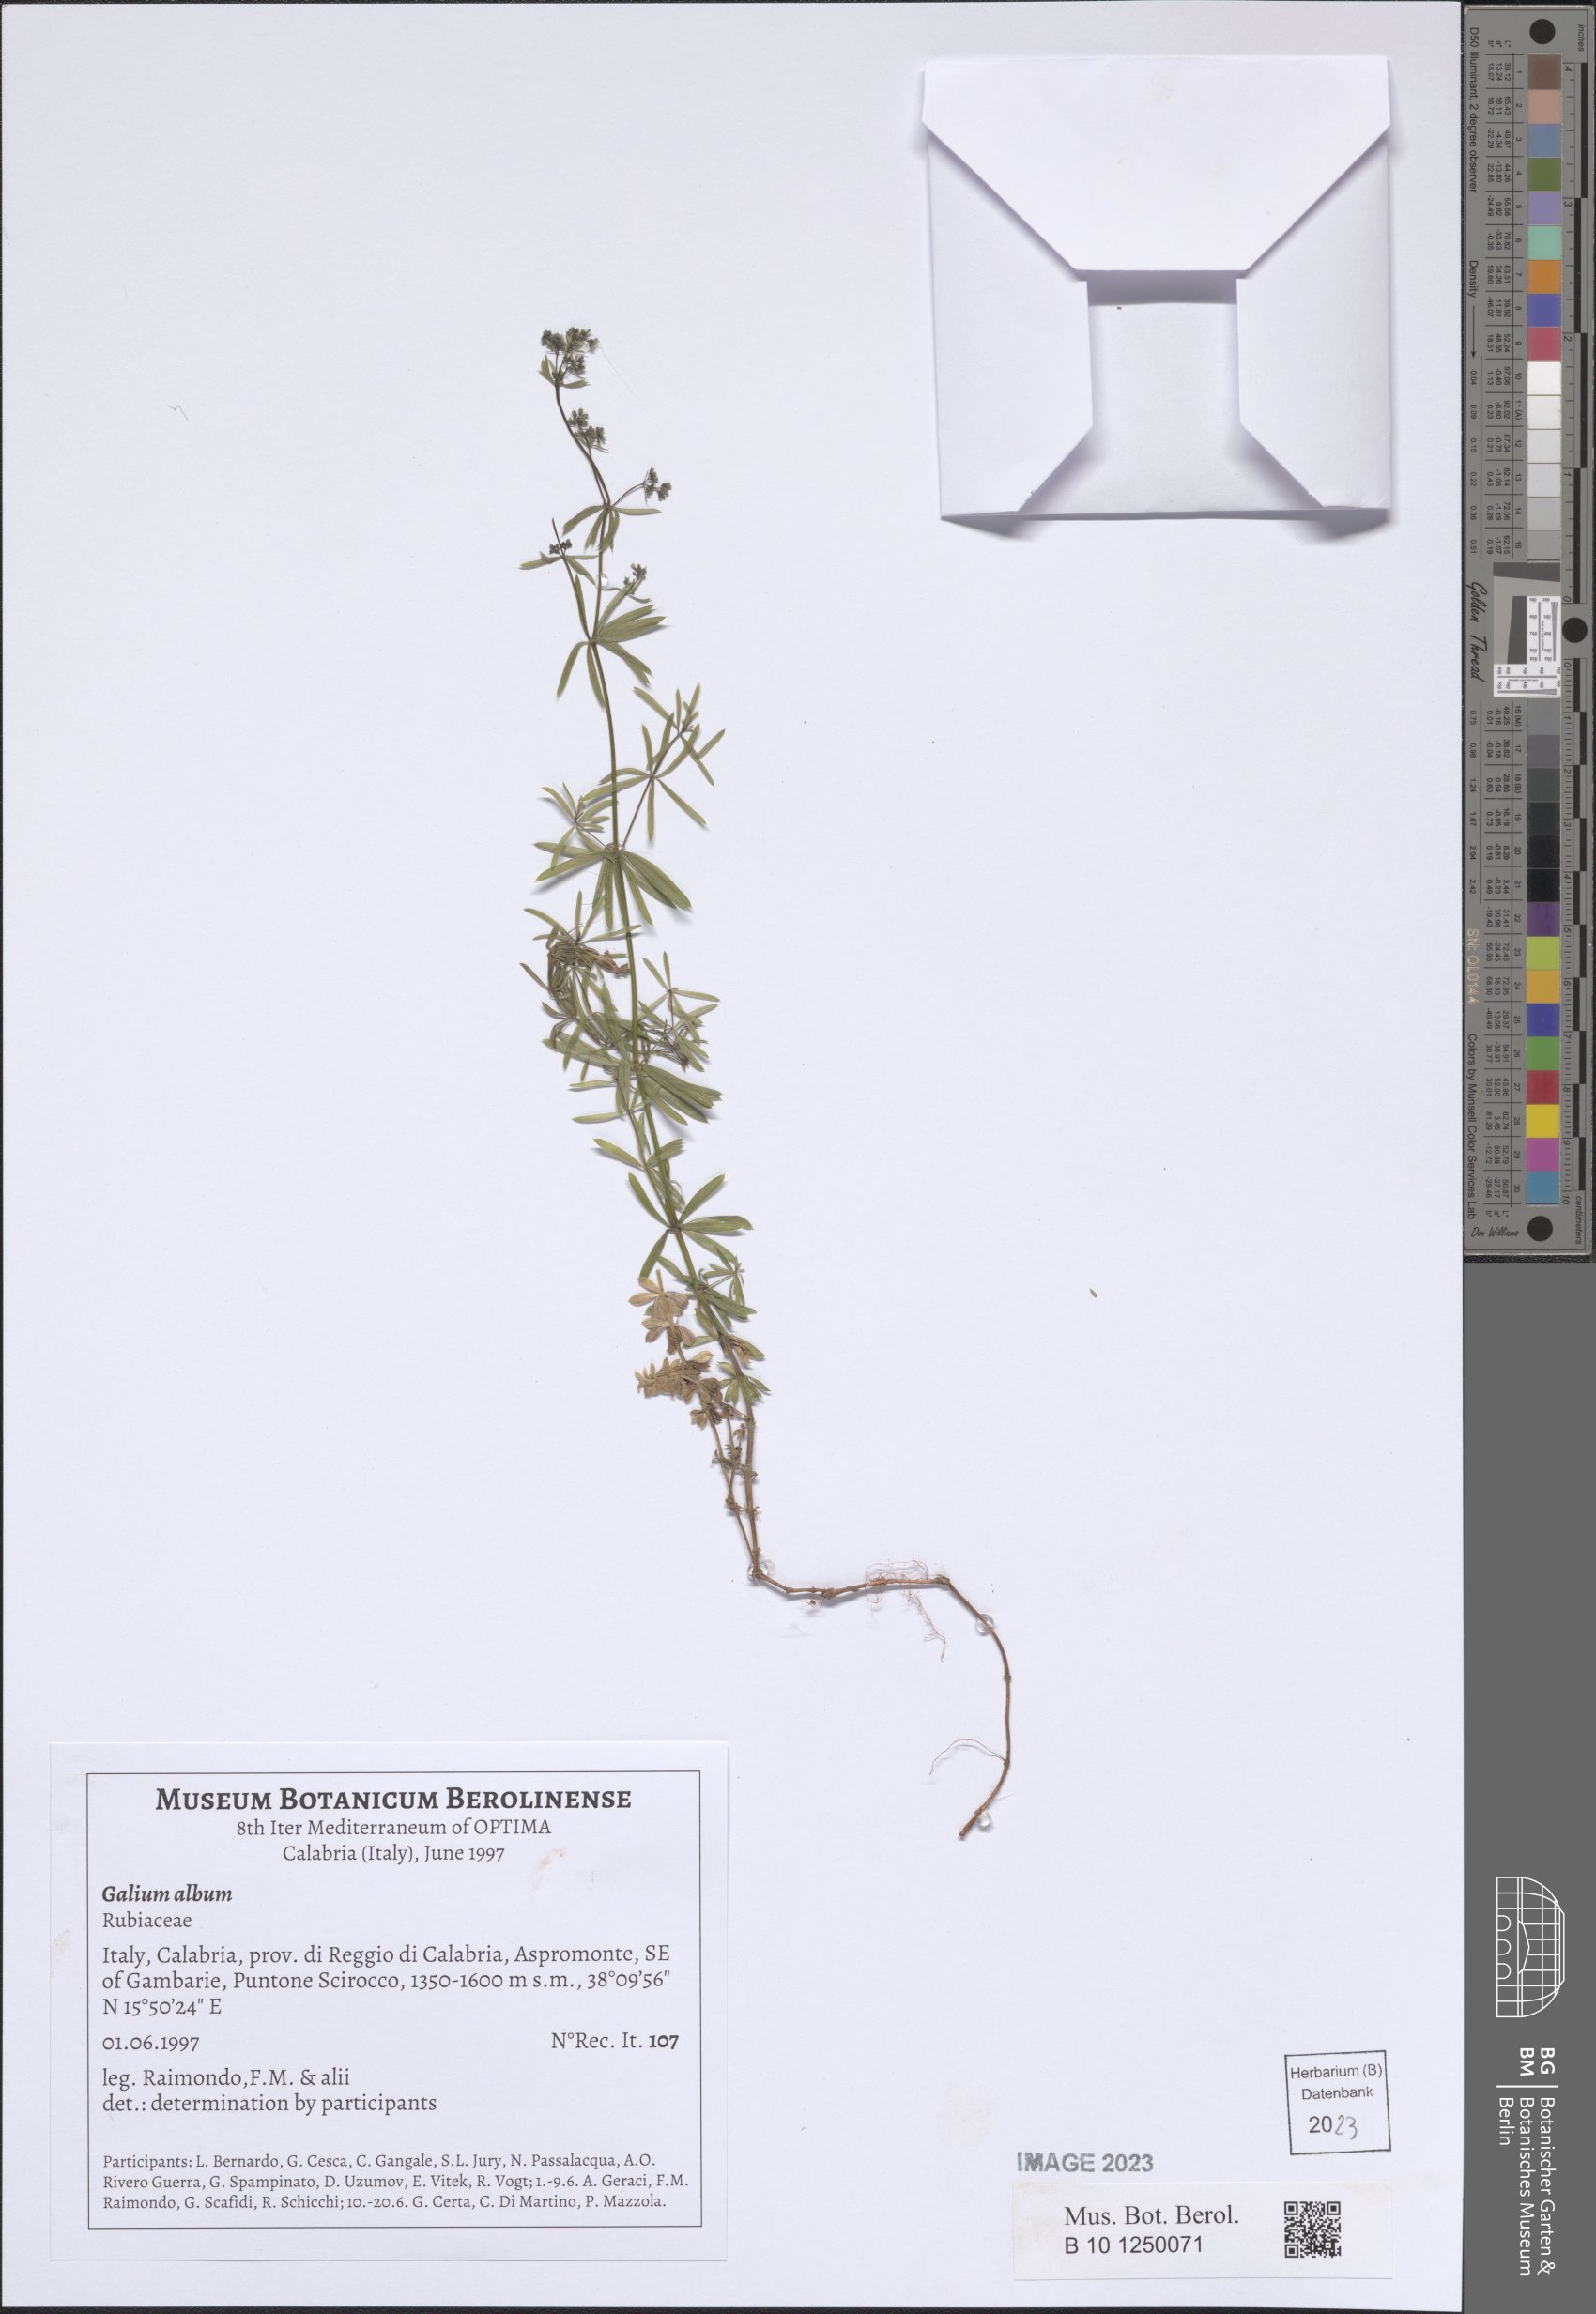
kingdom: Plantae
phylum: Tracheophyta
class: Magnoliopsida
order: Gentianales
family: Rubiaceae
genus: Galium
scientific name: Galium album
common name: White bedstraw
